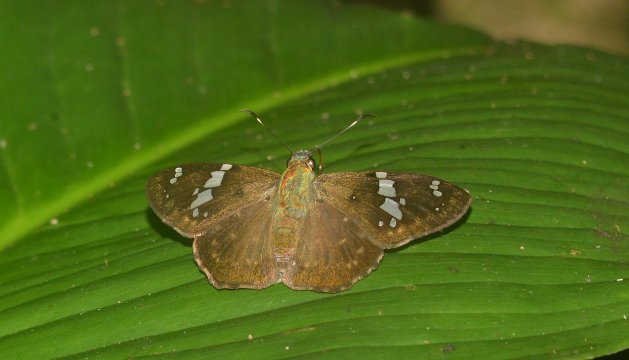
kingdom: Animalia
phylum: Arthropoda
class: Insecta
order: Lepidoptera
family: Hesperiidae
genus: Celaenorrhinus
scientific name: Celaenorrhinus eligius
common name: Eligius Flat
